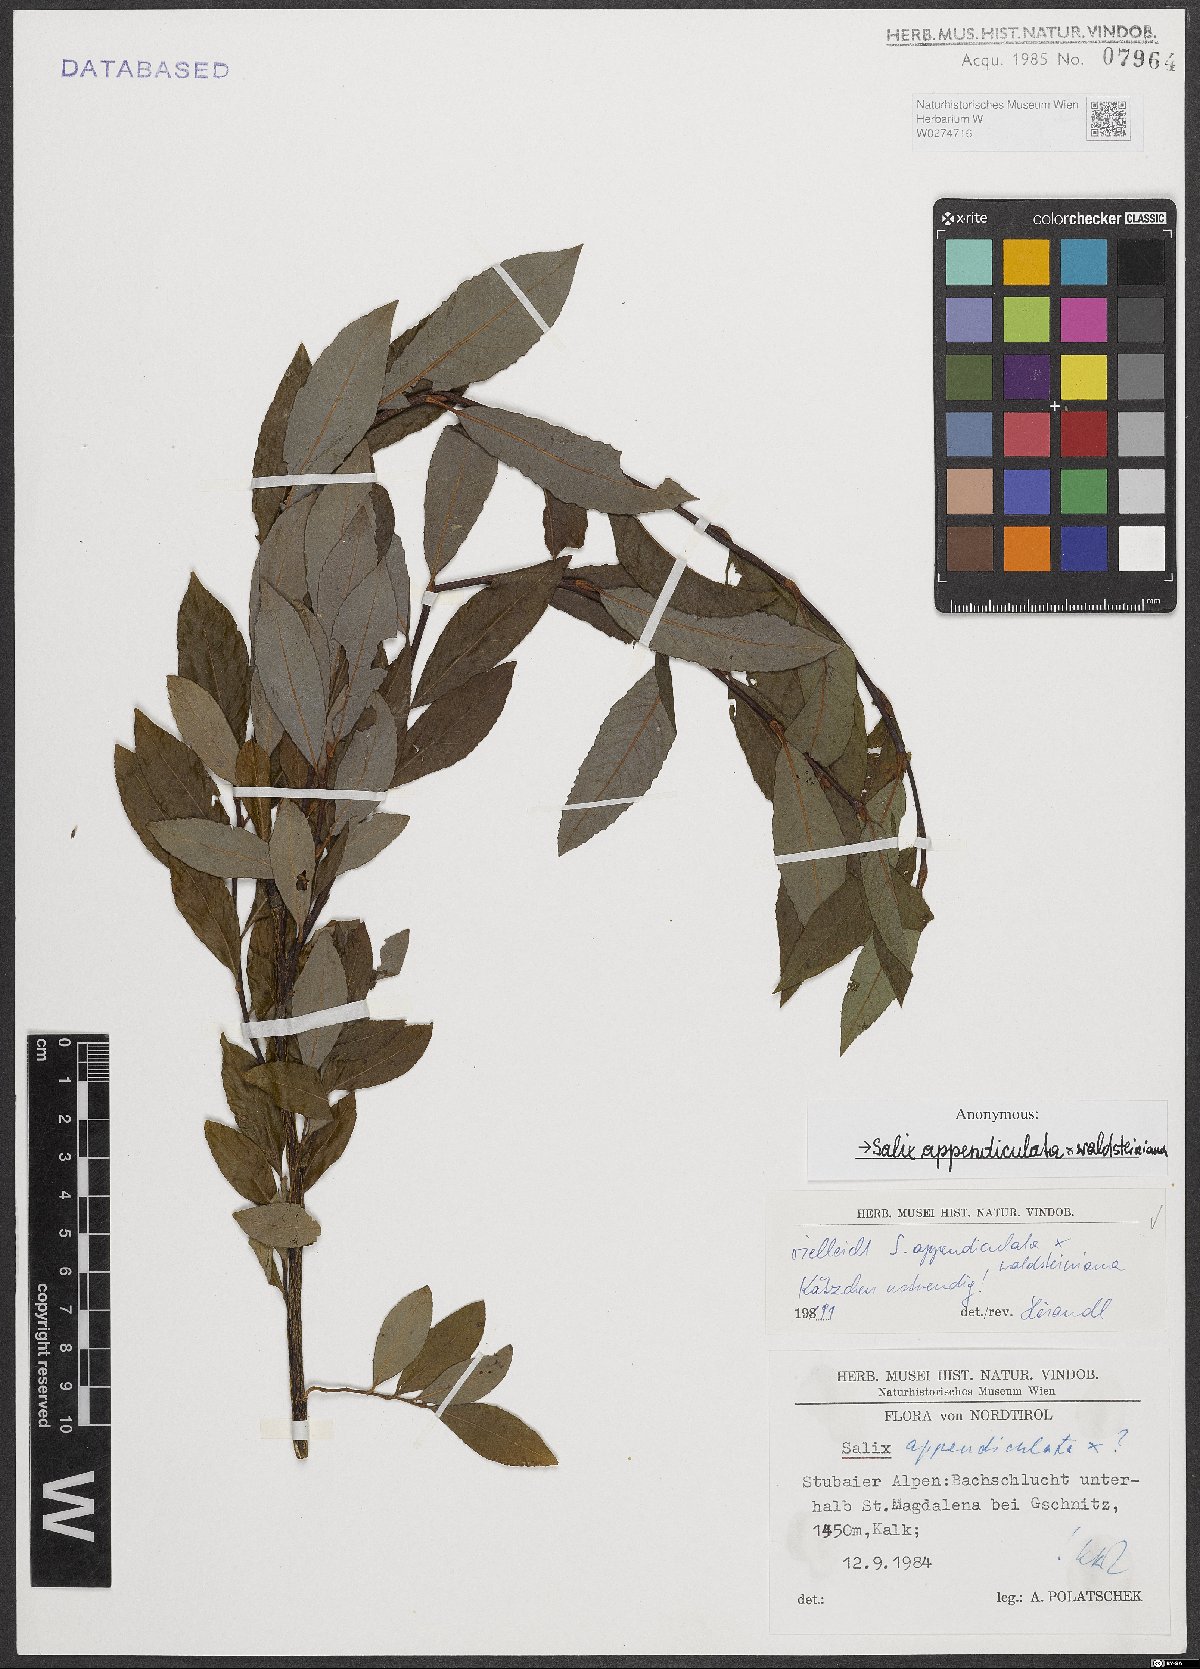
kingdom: Plantae
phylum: Tracheophyta
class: Magnoliopsida
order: Malpighiales
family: Salicaceae
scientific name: Salicaceae
